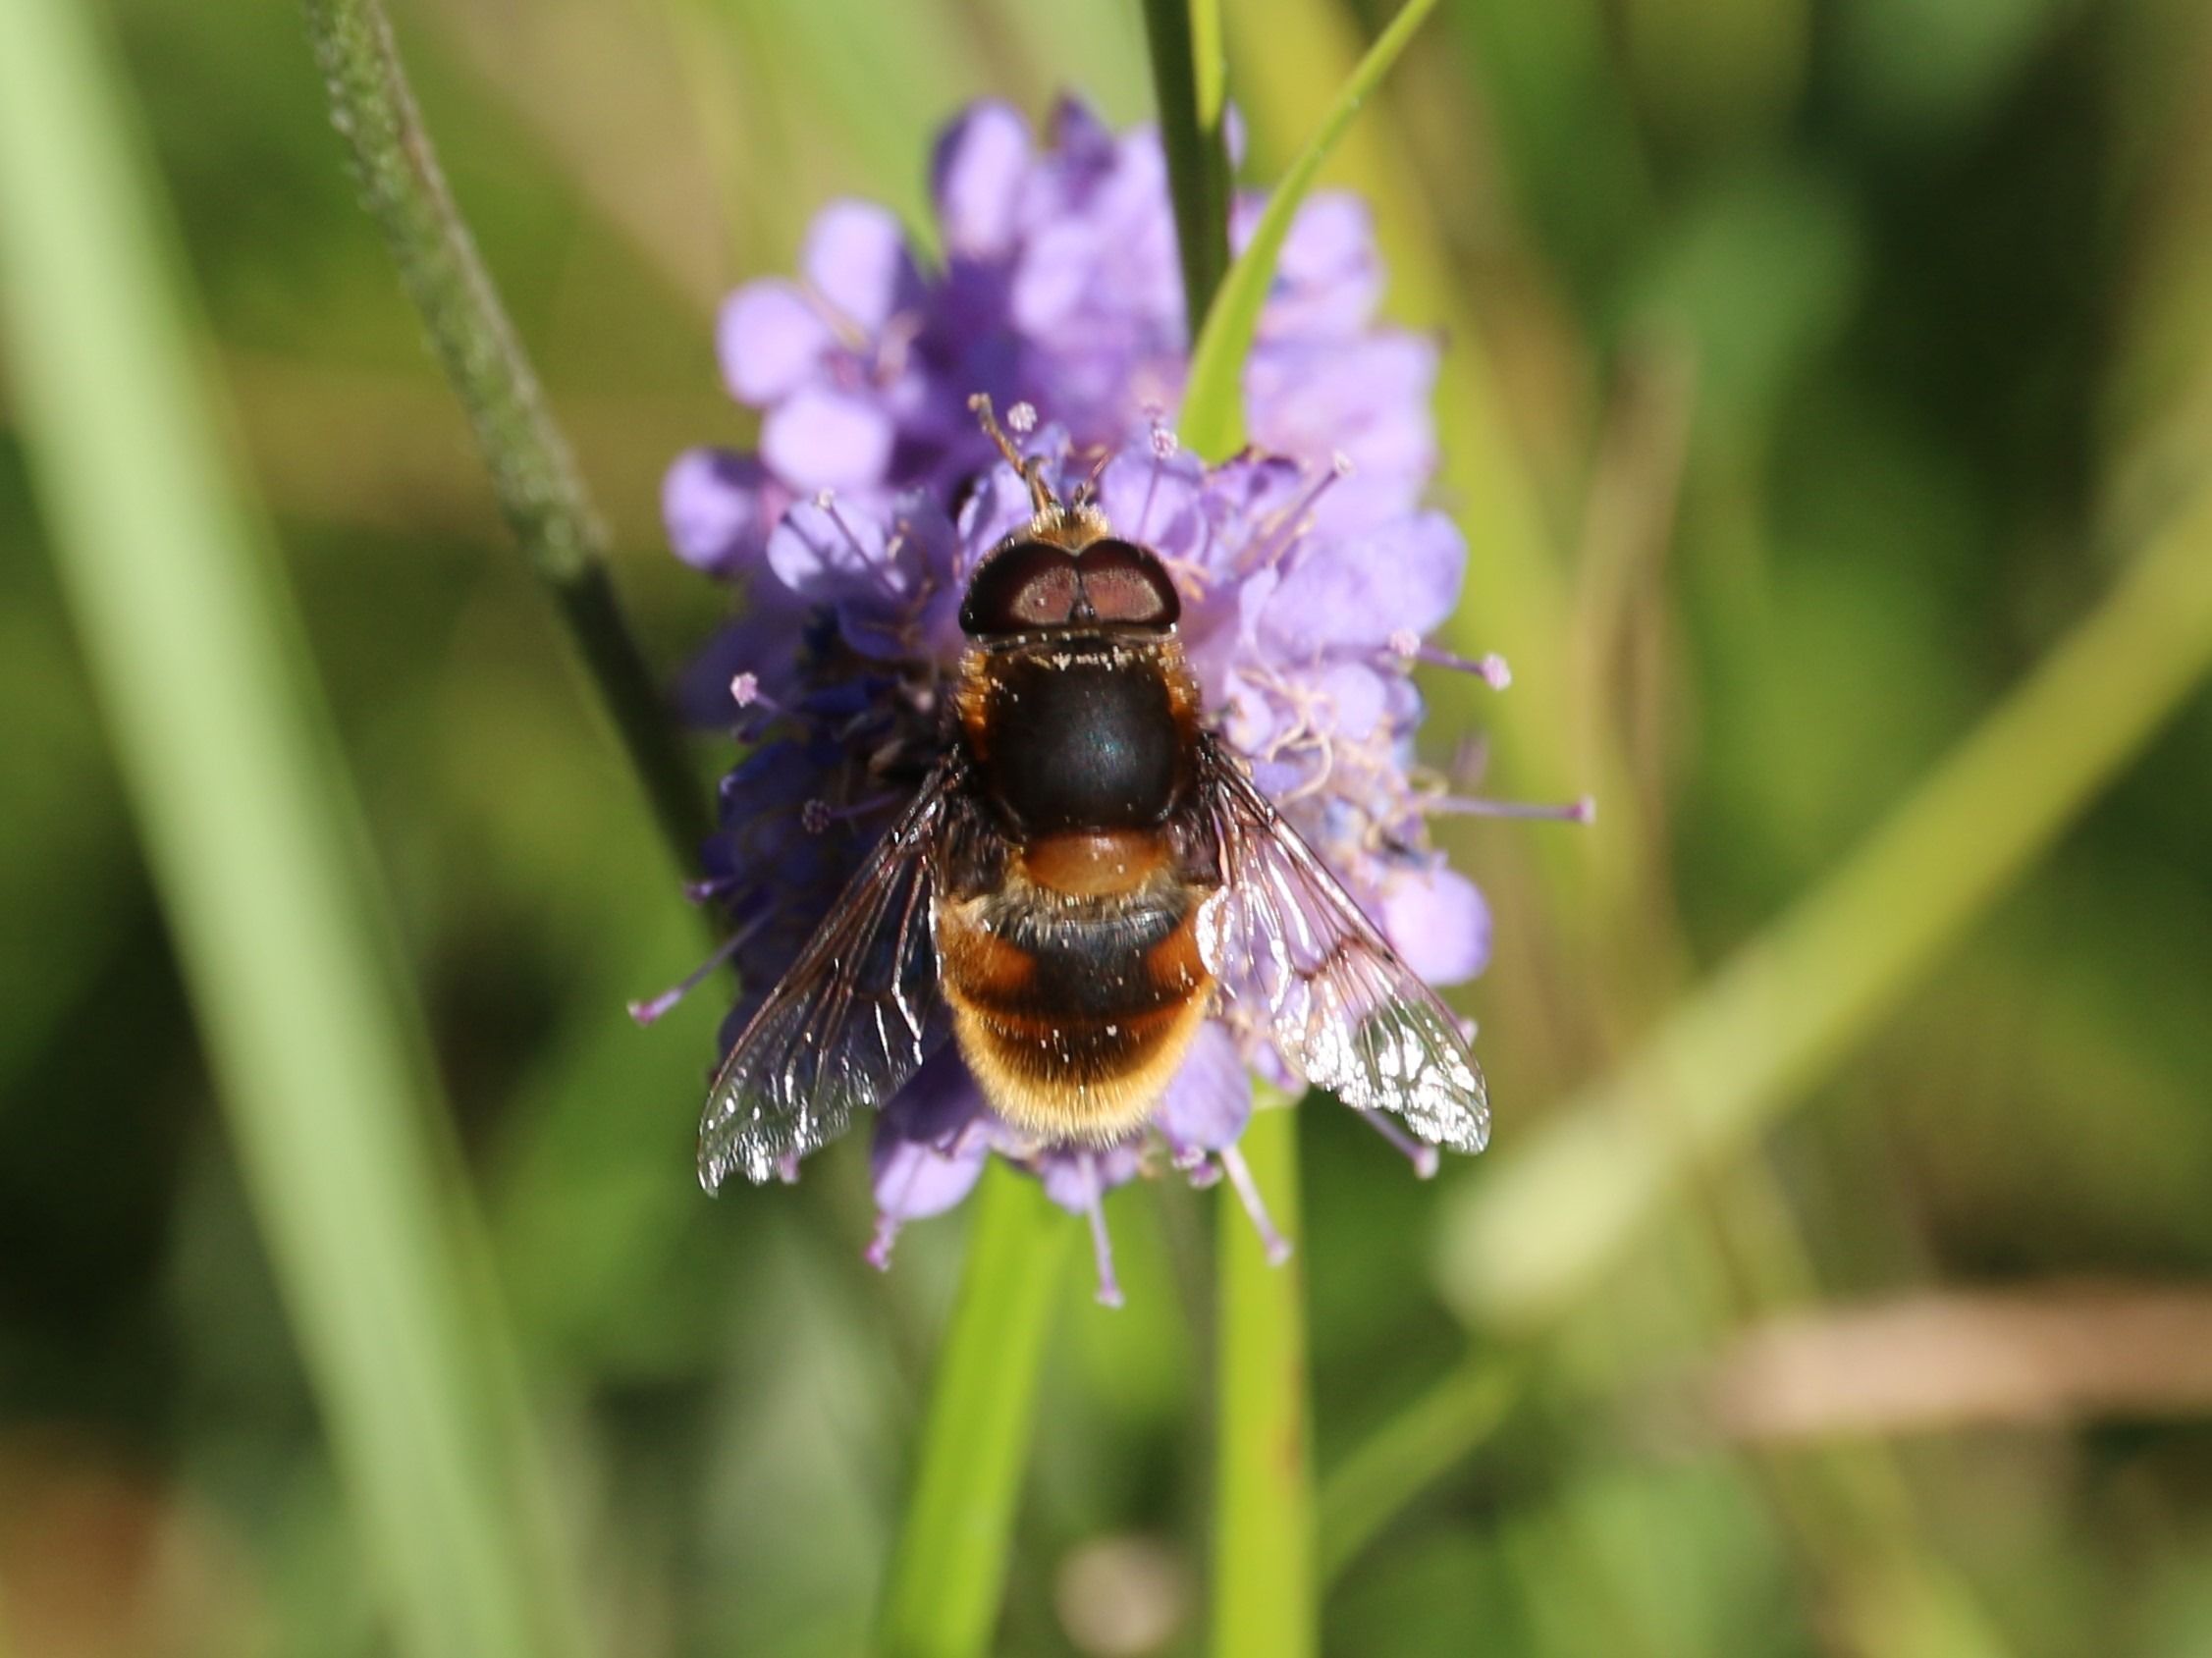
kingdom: Animalia
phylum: Arthropoda
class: Insecta
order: Diptera
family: Syrphidae
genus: Eristalis
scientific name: Eristalis intricaria
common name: Håret dyndflue
